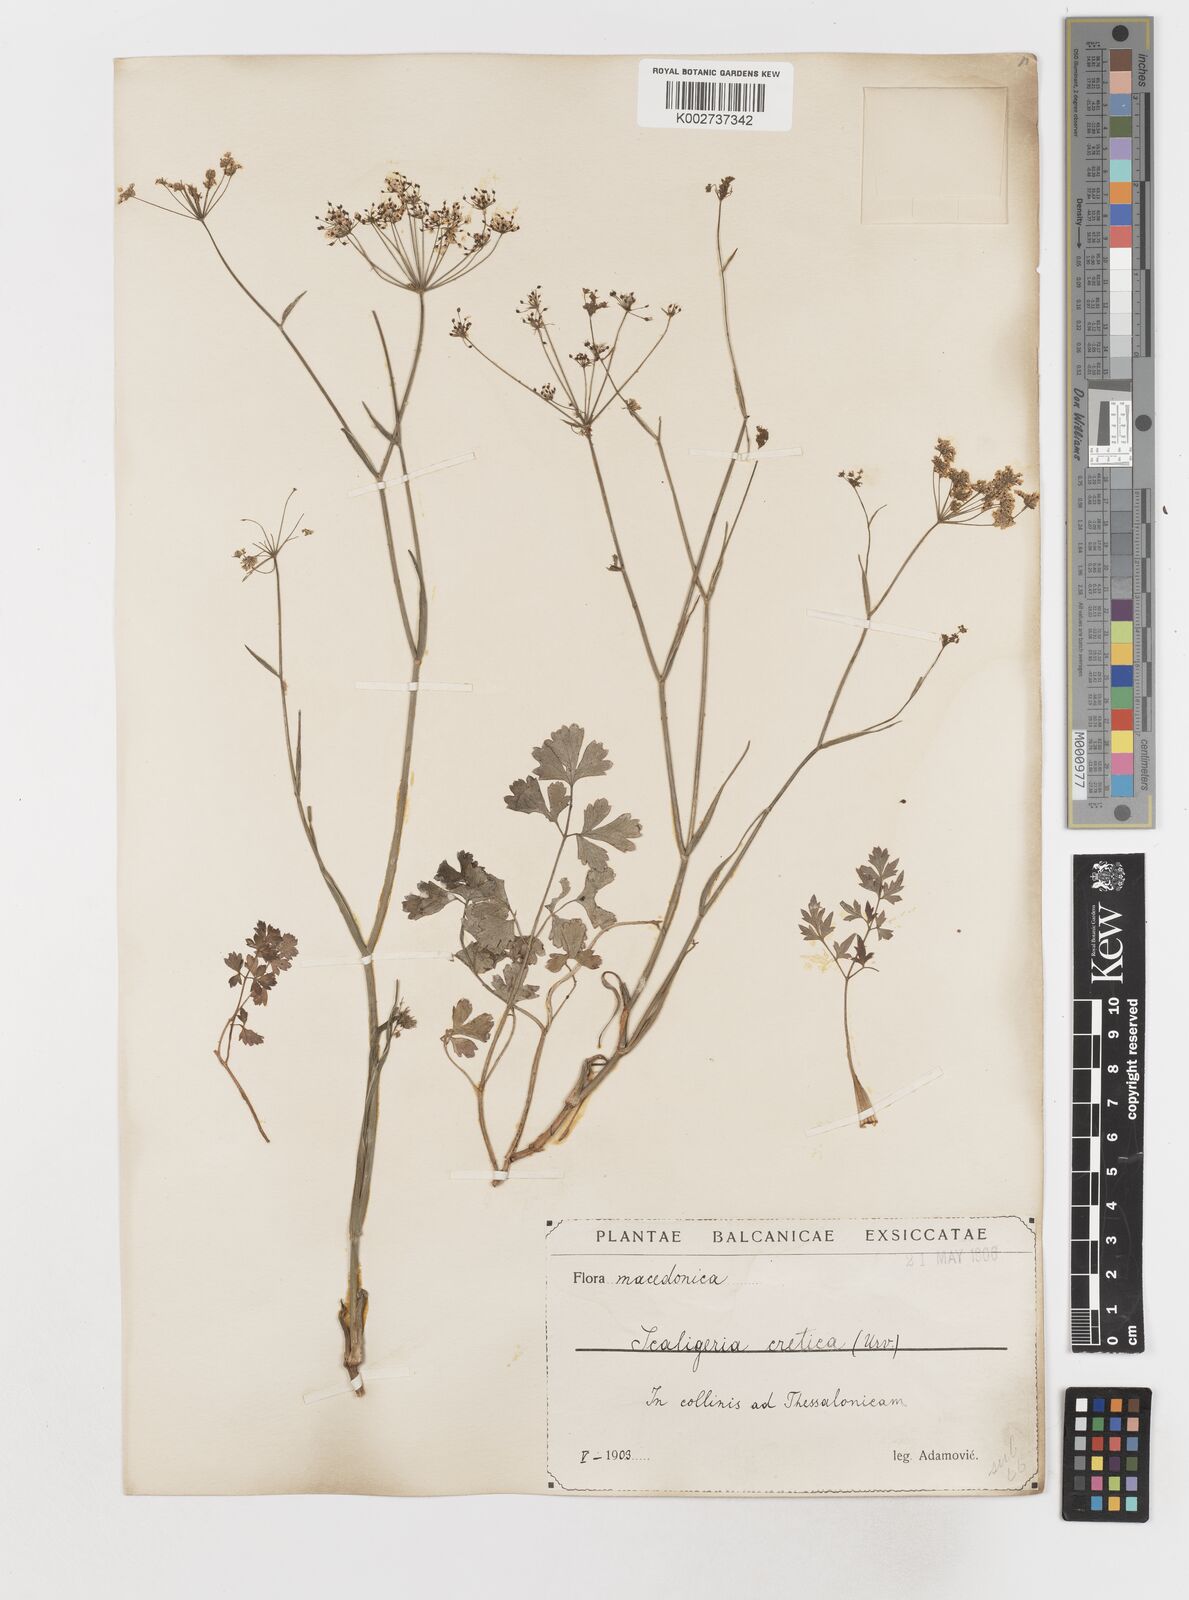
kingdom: Plantae
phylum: Tracheophyta
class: Magnoliopsida
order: Apiales
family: Apiaceae
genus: Scaligeria
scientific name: Scaligeria napiformis
